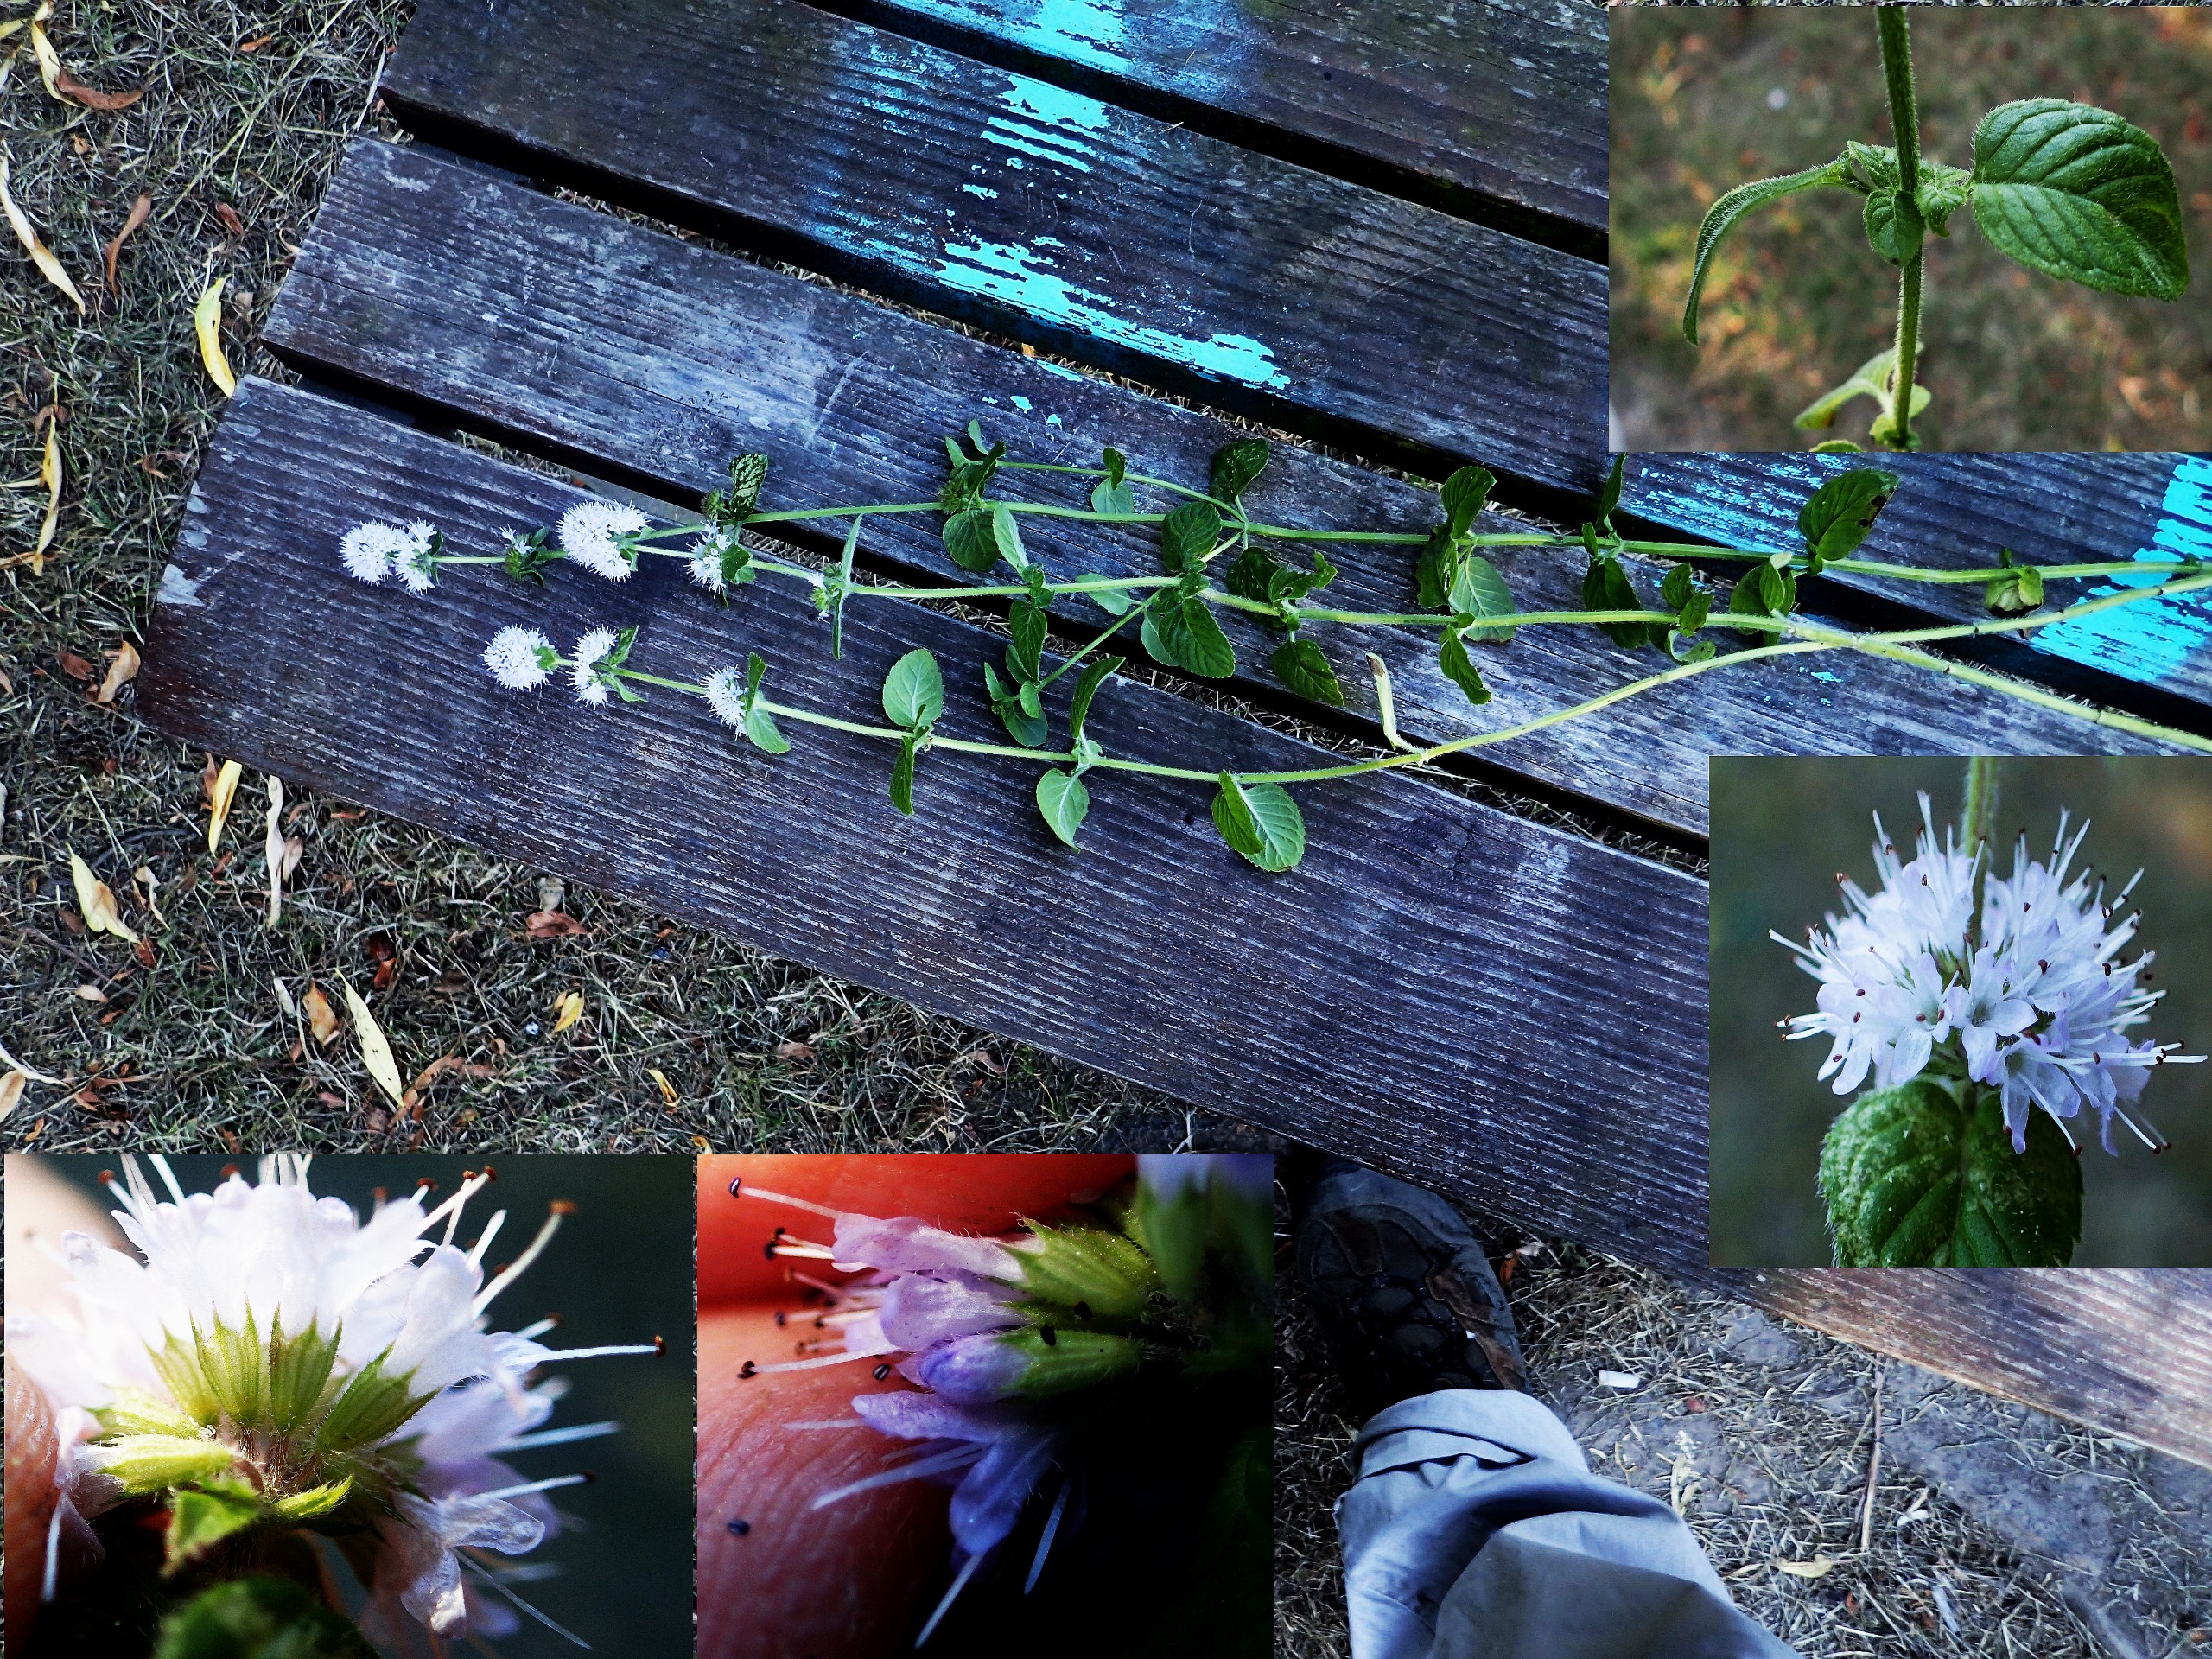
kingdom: Plantae
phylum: Tracheophyta
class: Magnoliopsida
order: Lamiales
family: Lamiaceae
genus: Mentha
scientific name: Mentha aquatica
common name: Vand-mynte
